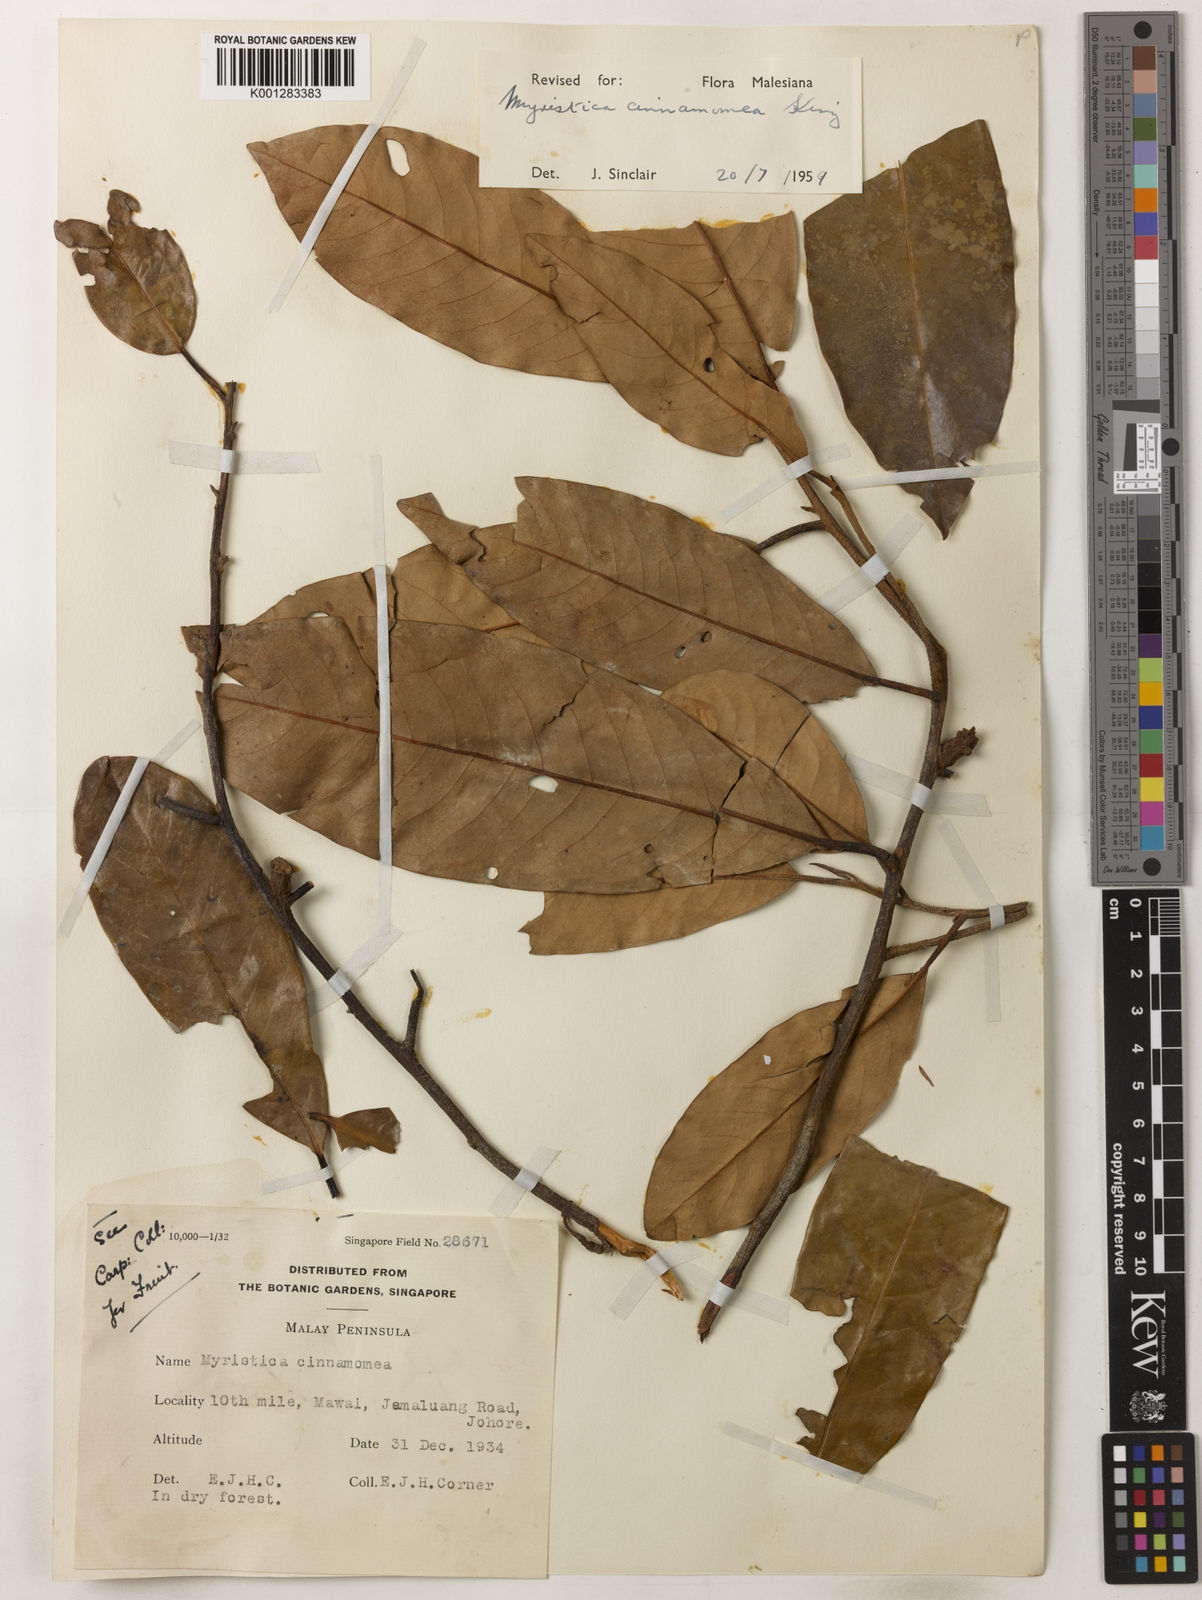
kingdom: Plantae
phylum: Tracheophyta
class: Magnoliopsida
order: Magnoliales
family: Myristicaceae
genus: Myristica
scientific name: Myristica cinnamomea
